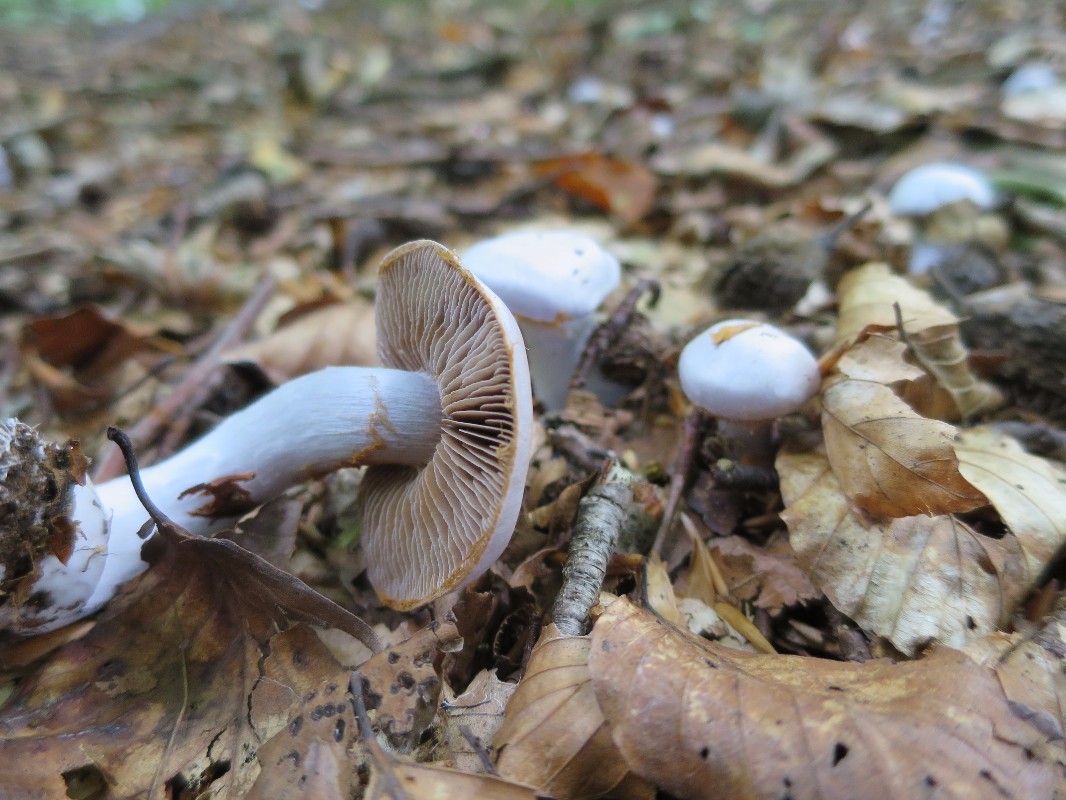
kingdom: Fungi
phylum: Basidiomycota
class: Agaricomycetes
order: Agaricales
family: Cortinariaceae
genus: Cortinarius
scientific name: Cortinarius alboviolaceus
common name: lysviolet slørhat
